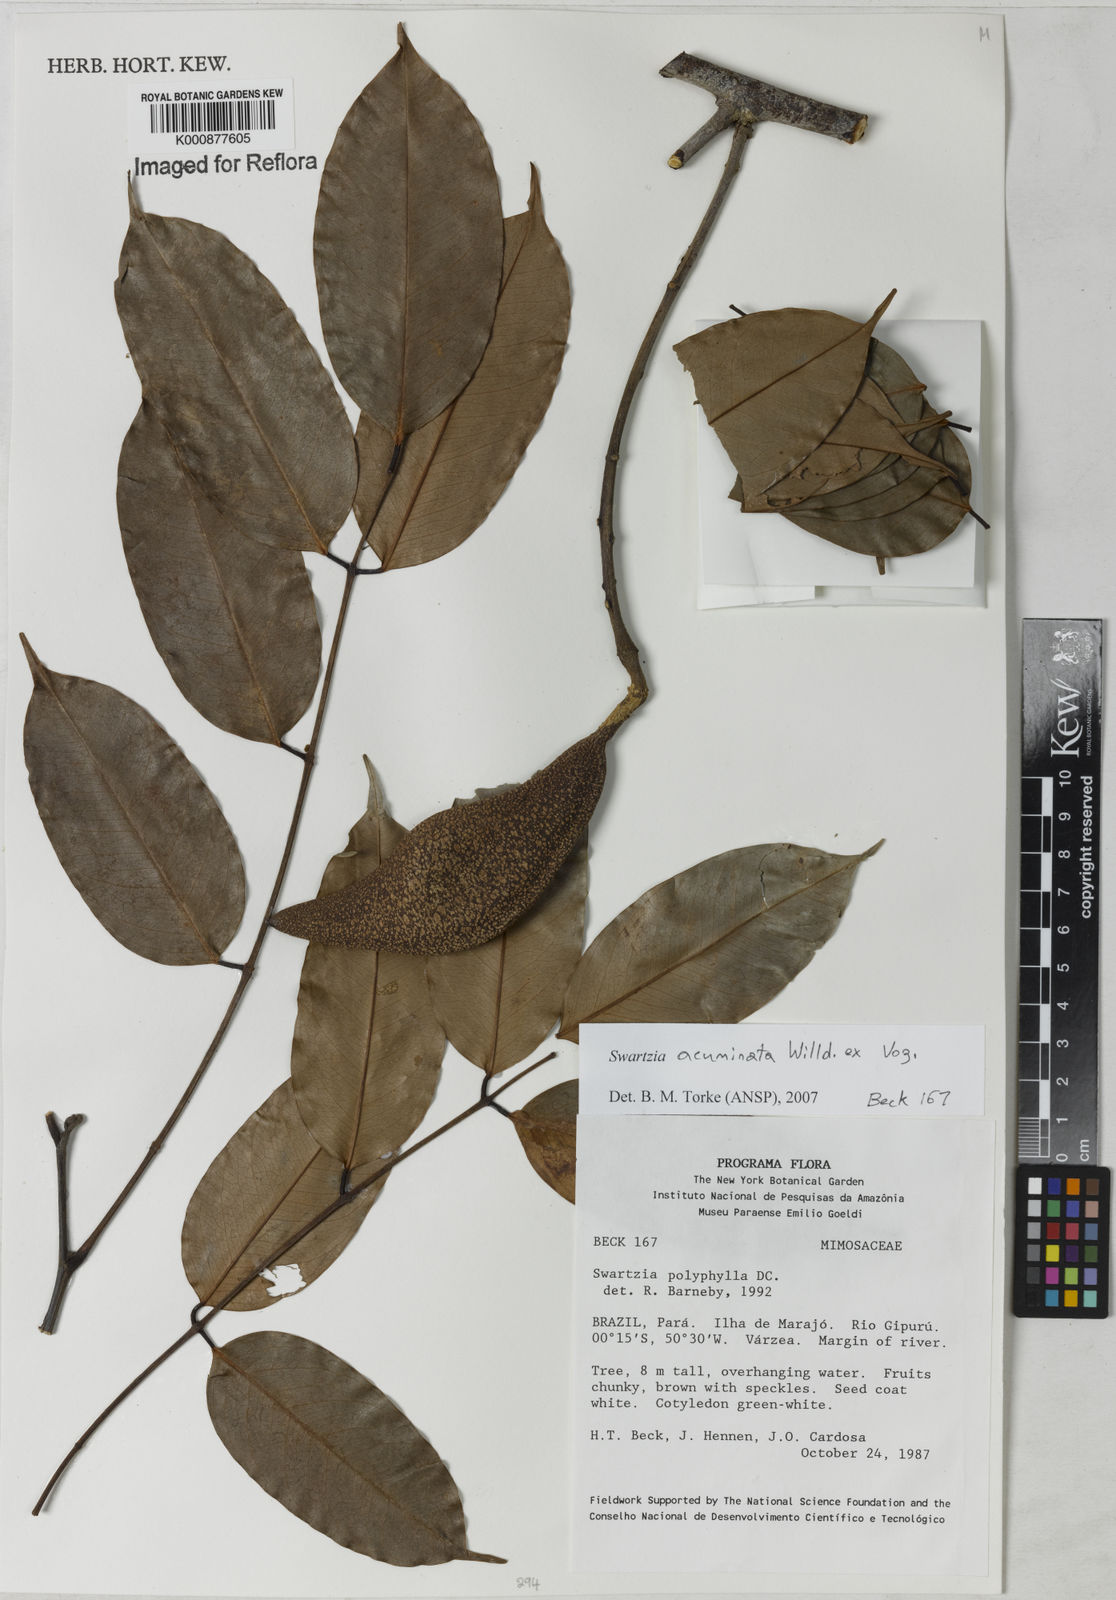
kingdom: Plantae
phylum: Tracheophyta
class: Magnoliopsida
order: Fabales
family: Fabaceae
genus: Swartzia
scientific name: Swartzia acuminata
